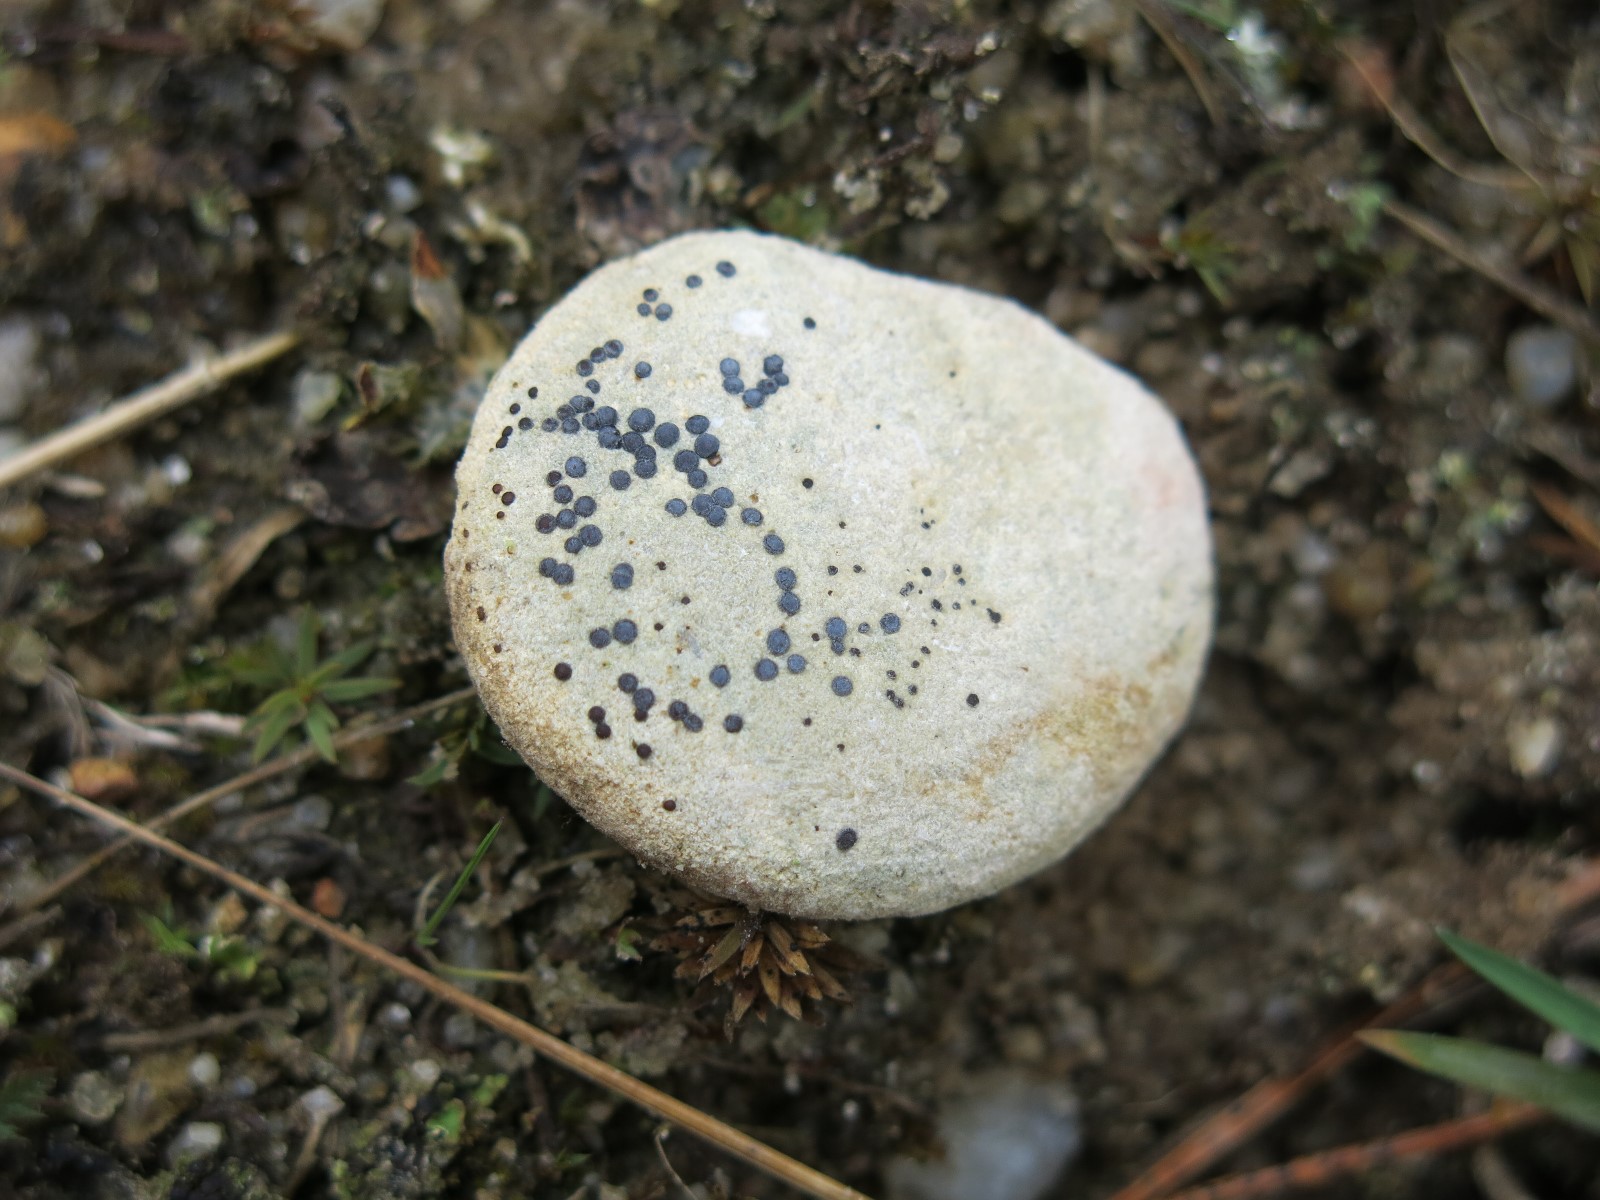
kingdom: Fungi
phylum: Ascomycota
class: Lecanoromycetes
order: Acarosporales
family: Acarosporaceae
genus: Sarcogyne
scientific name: Sarcogyne regularis
